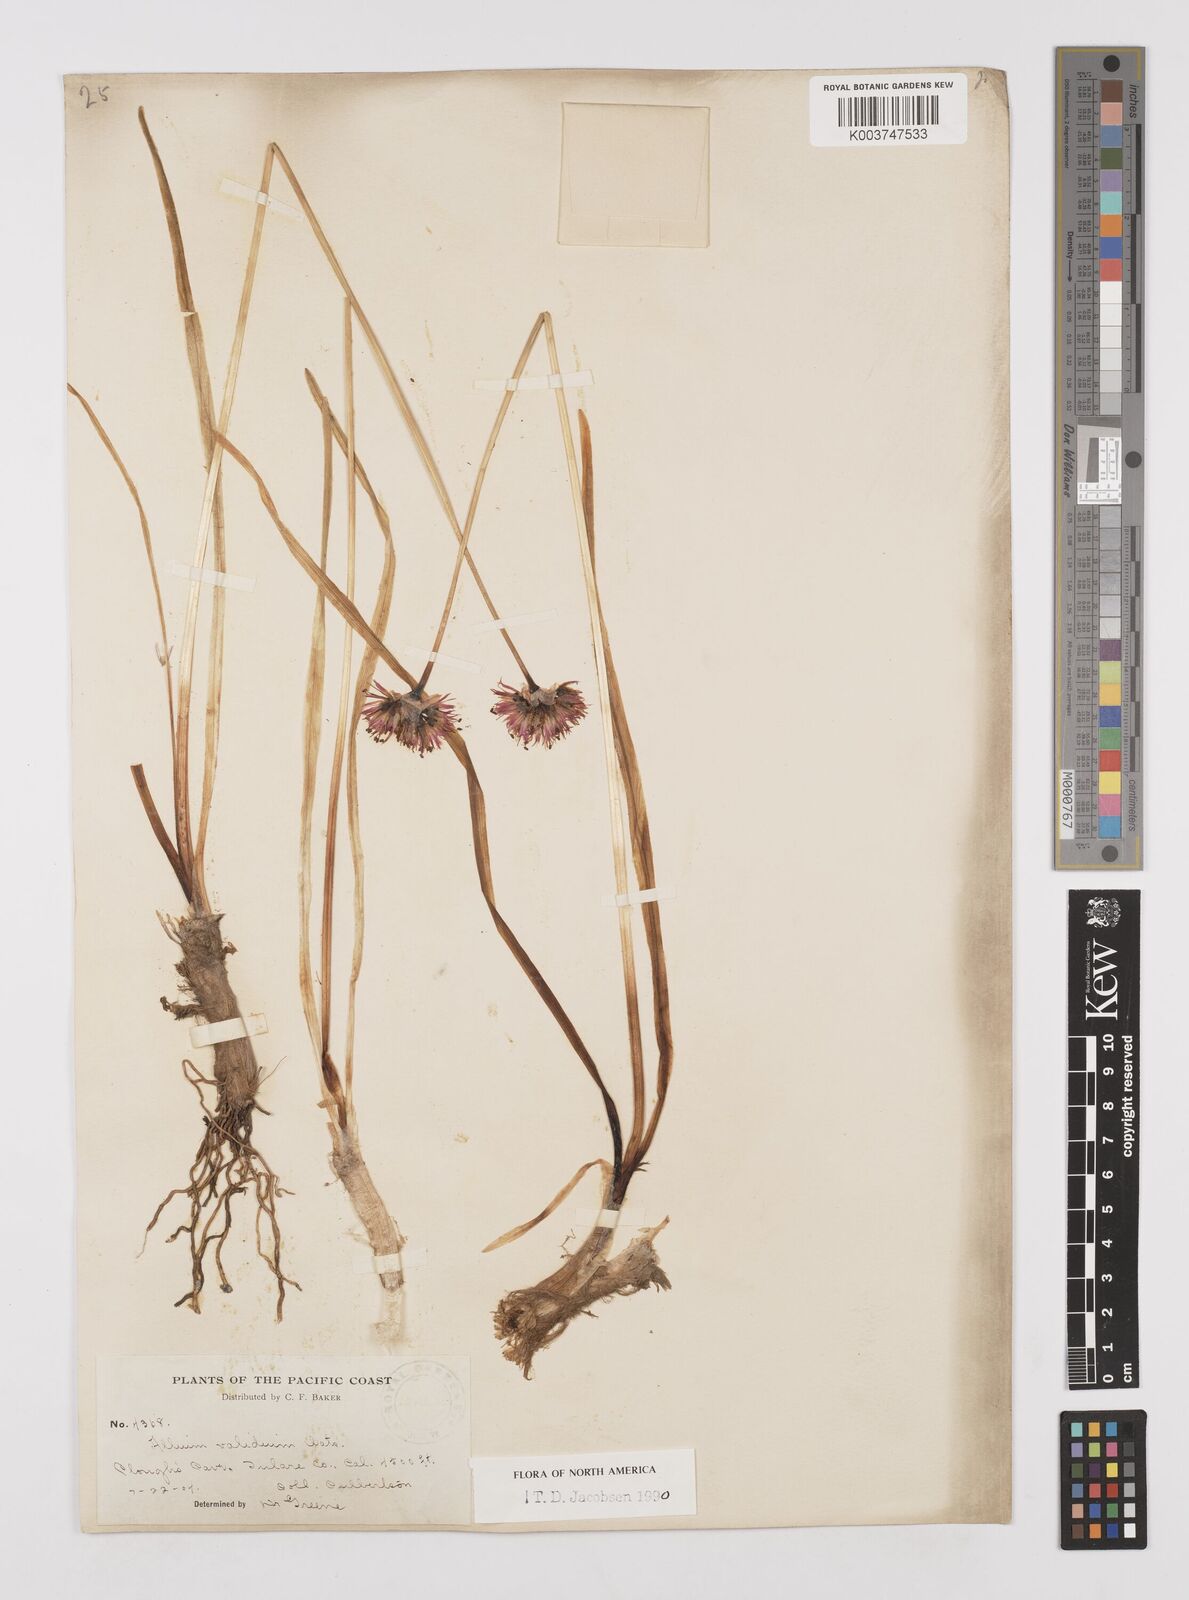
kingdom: Plantae
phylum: Tracheophyta
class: Liliopsida
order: Asparagales
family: Amaryllidaceae
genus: Allium
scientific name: Allium validum
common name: Pacific mountain onion
